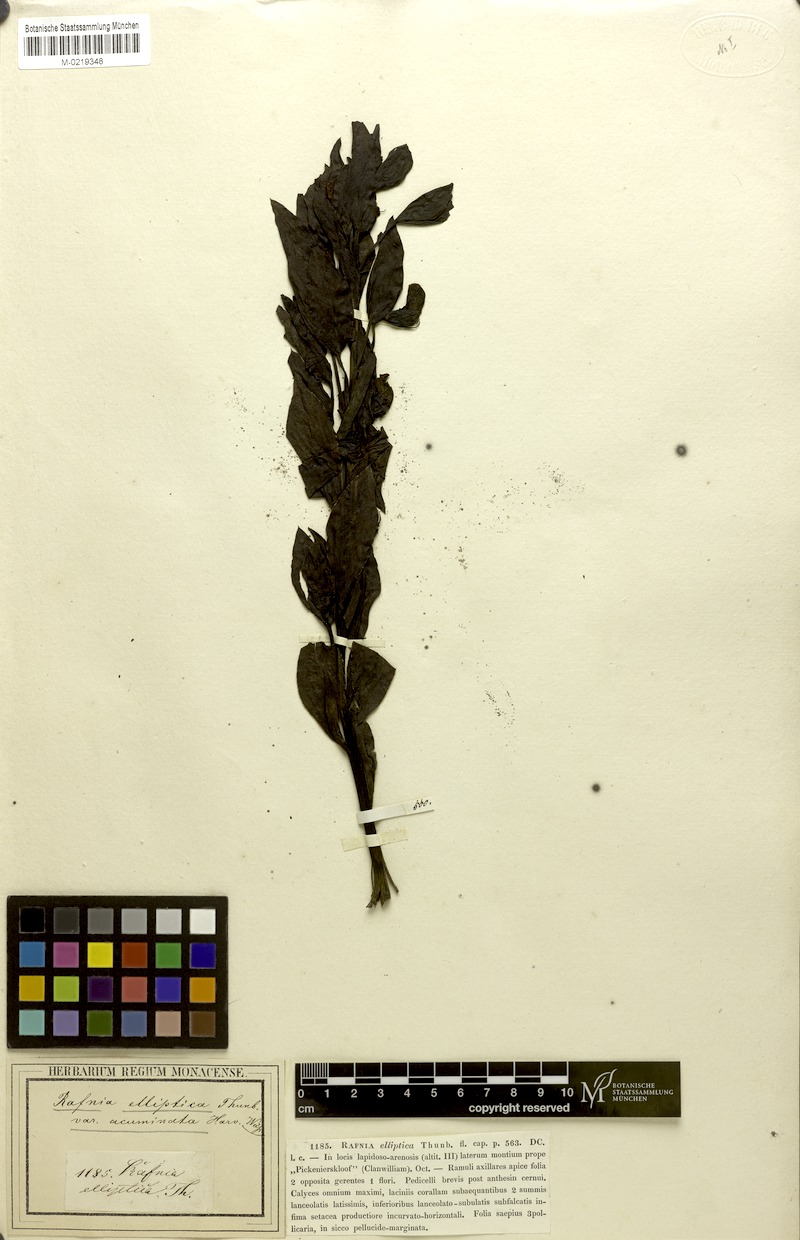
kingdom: Plantae
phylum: Tracheophyta
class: Magnoliopsida
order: Fabales
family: Fabaceae
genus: Rafnia
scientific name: Rafnia elliptica
